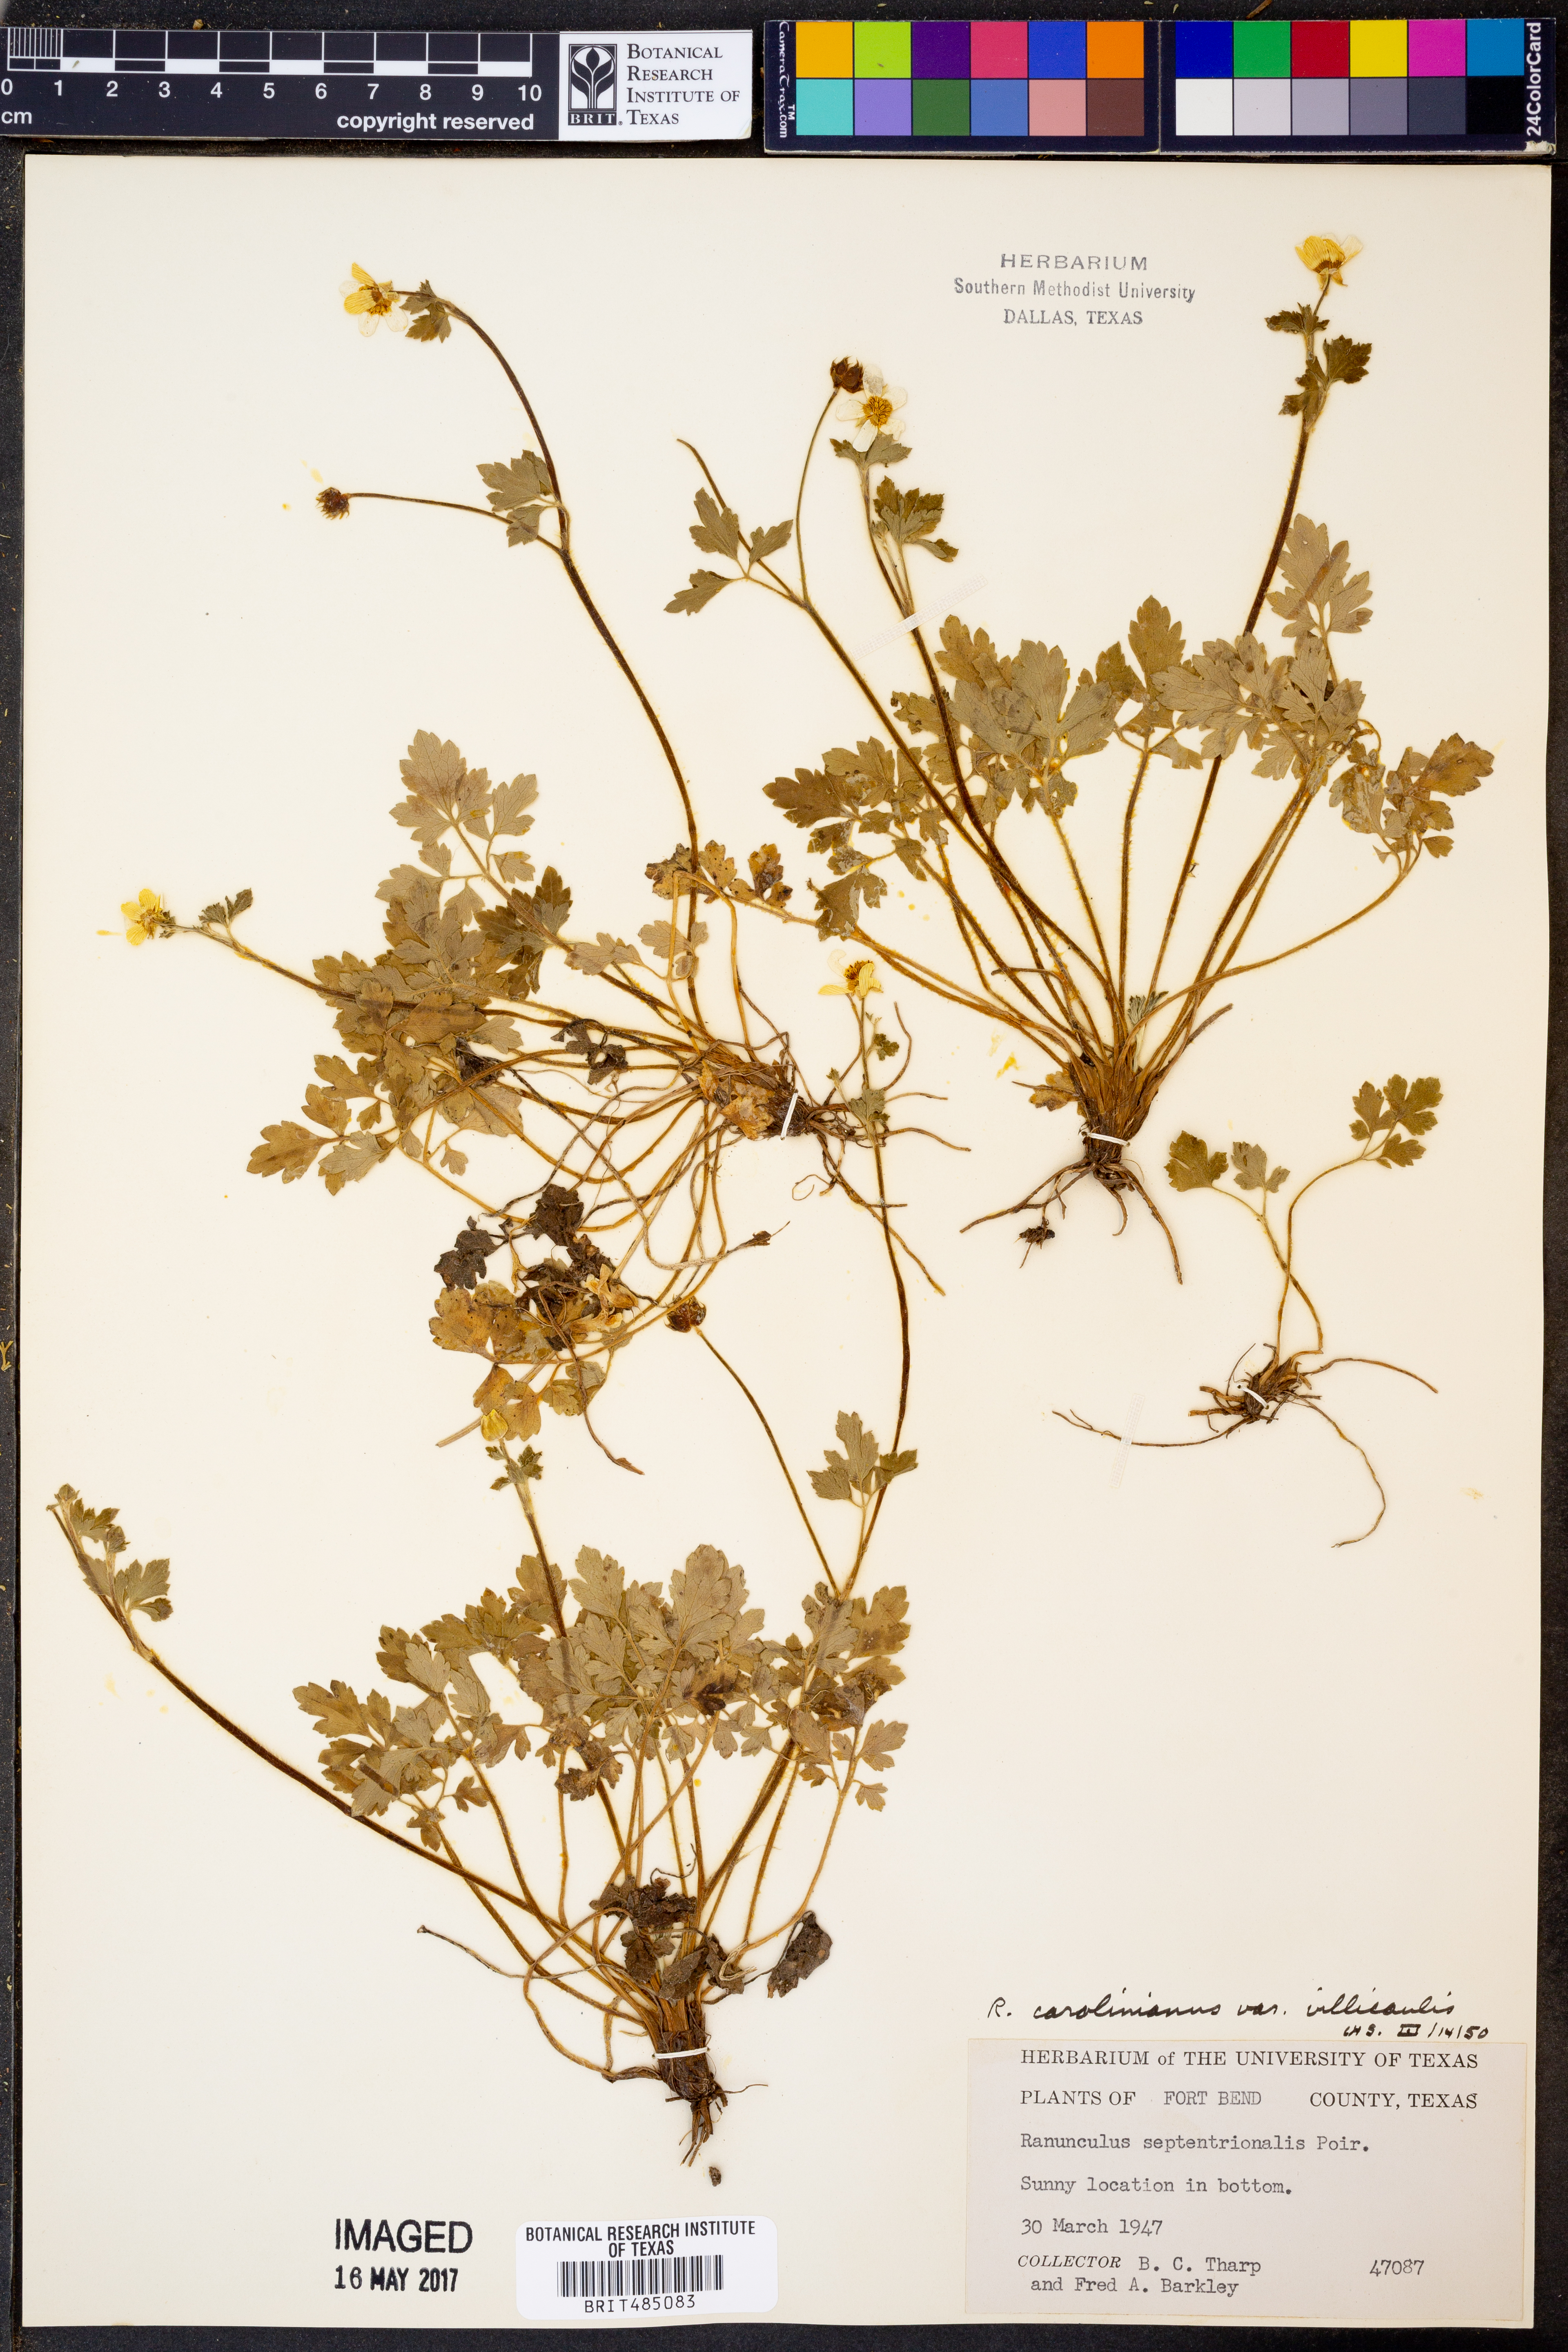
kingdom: Plantae
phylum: Tracheophyta
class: Magnoliopsida
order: Ranunculales
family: Ranunculaceae
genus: Ranunculus
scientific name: Ranunculus hispidus
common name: Bristly buttercup
